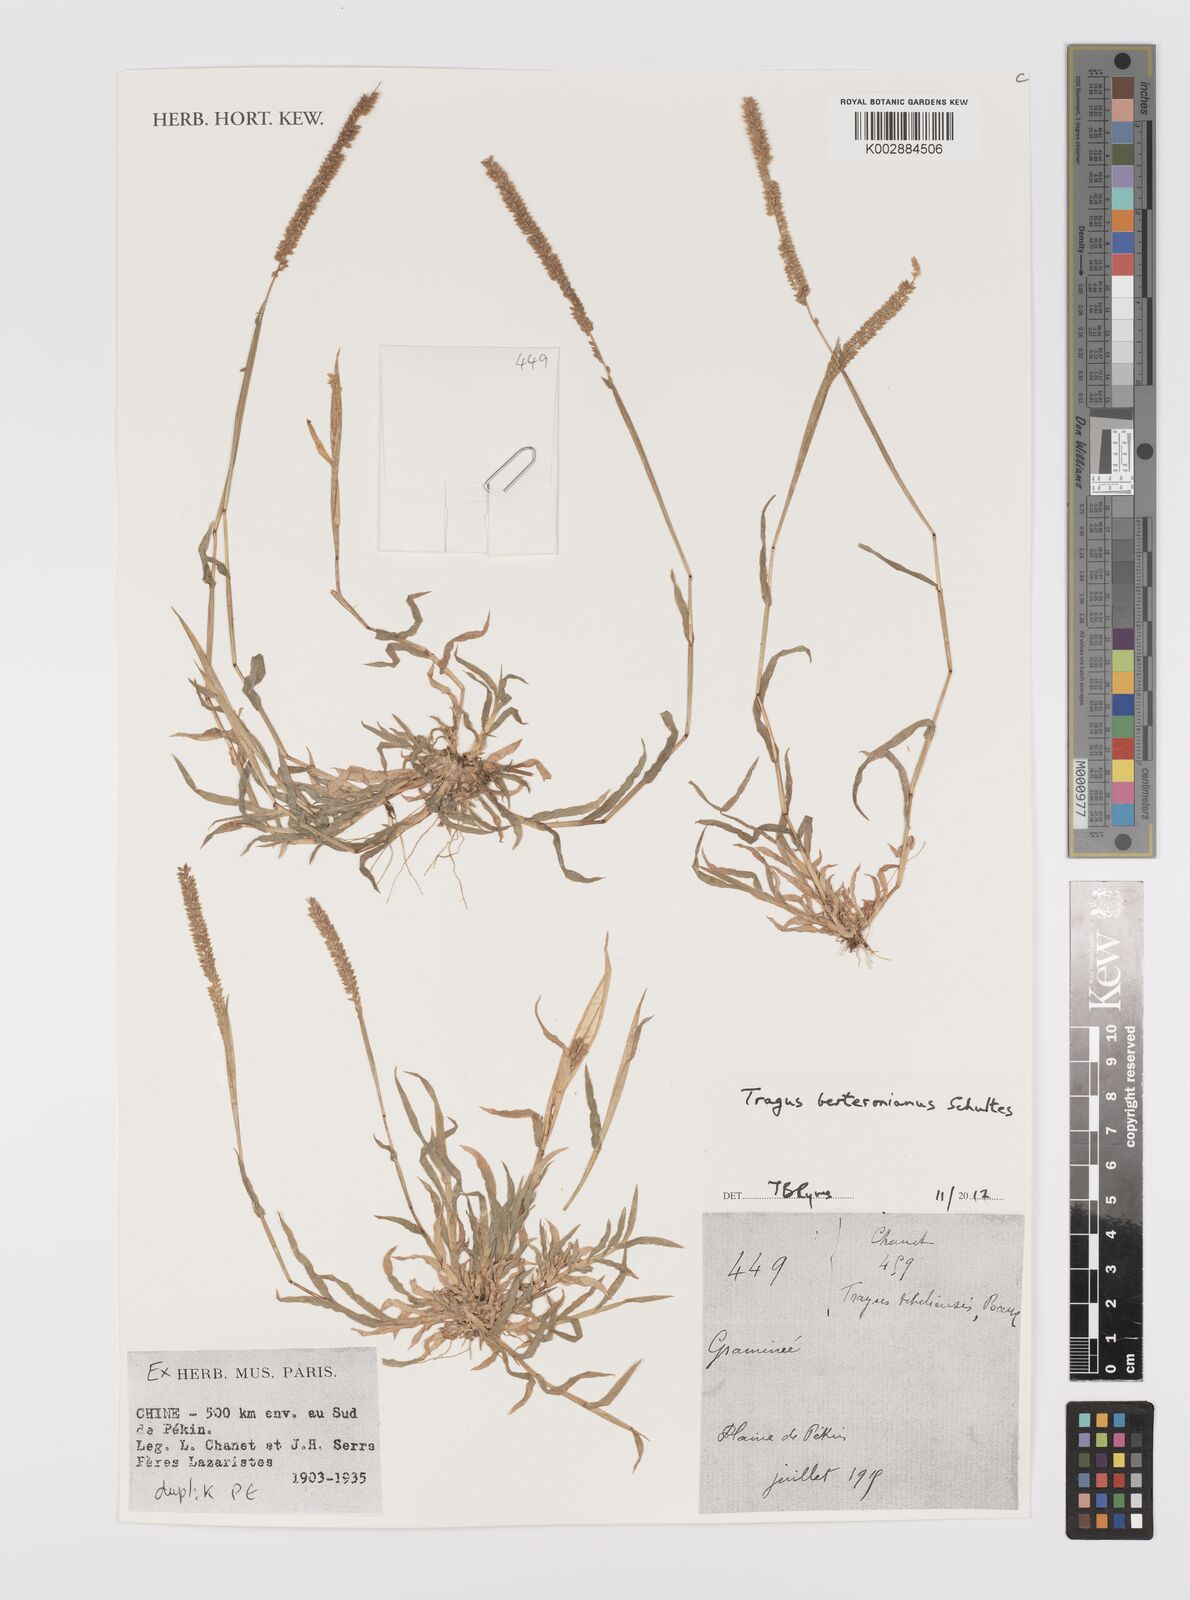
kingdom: Plantae
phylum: Tracheophyta
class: Liliopsida
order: Poales
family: Poaceae
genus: Tragus
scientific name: Tragus berteronianus
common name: African bur-grass
